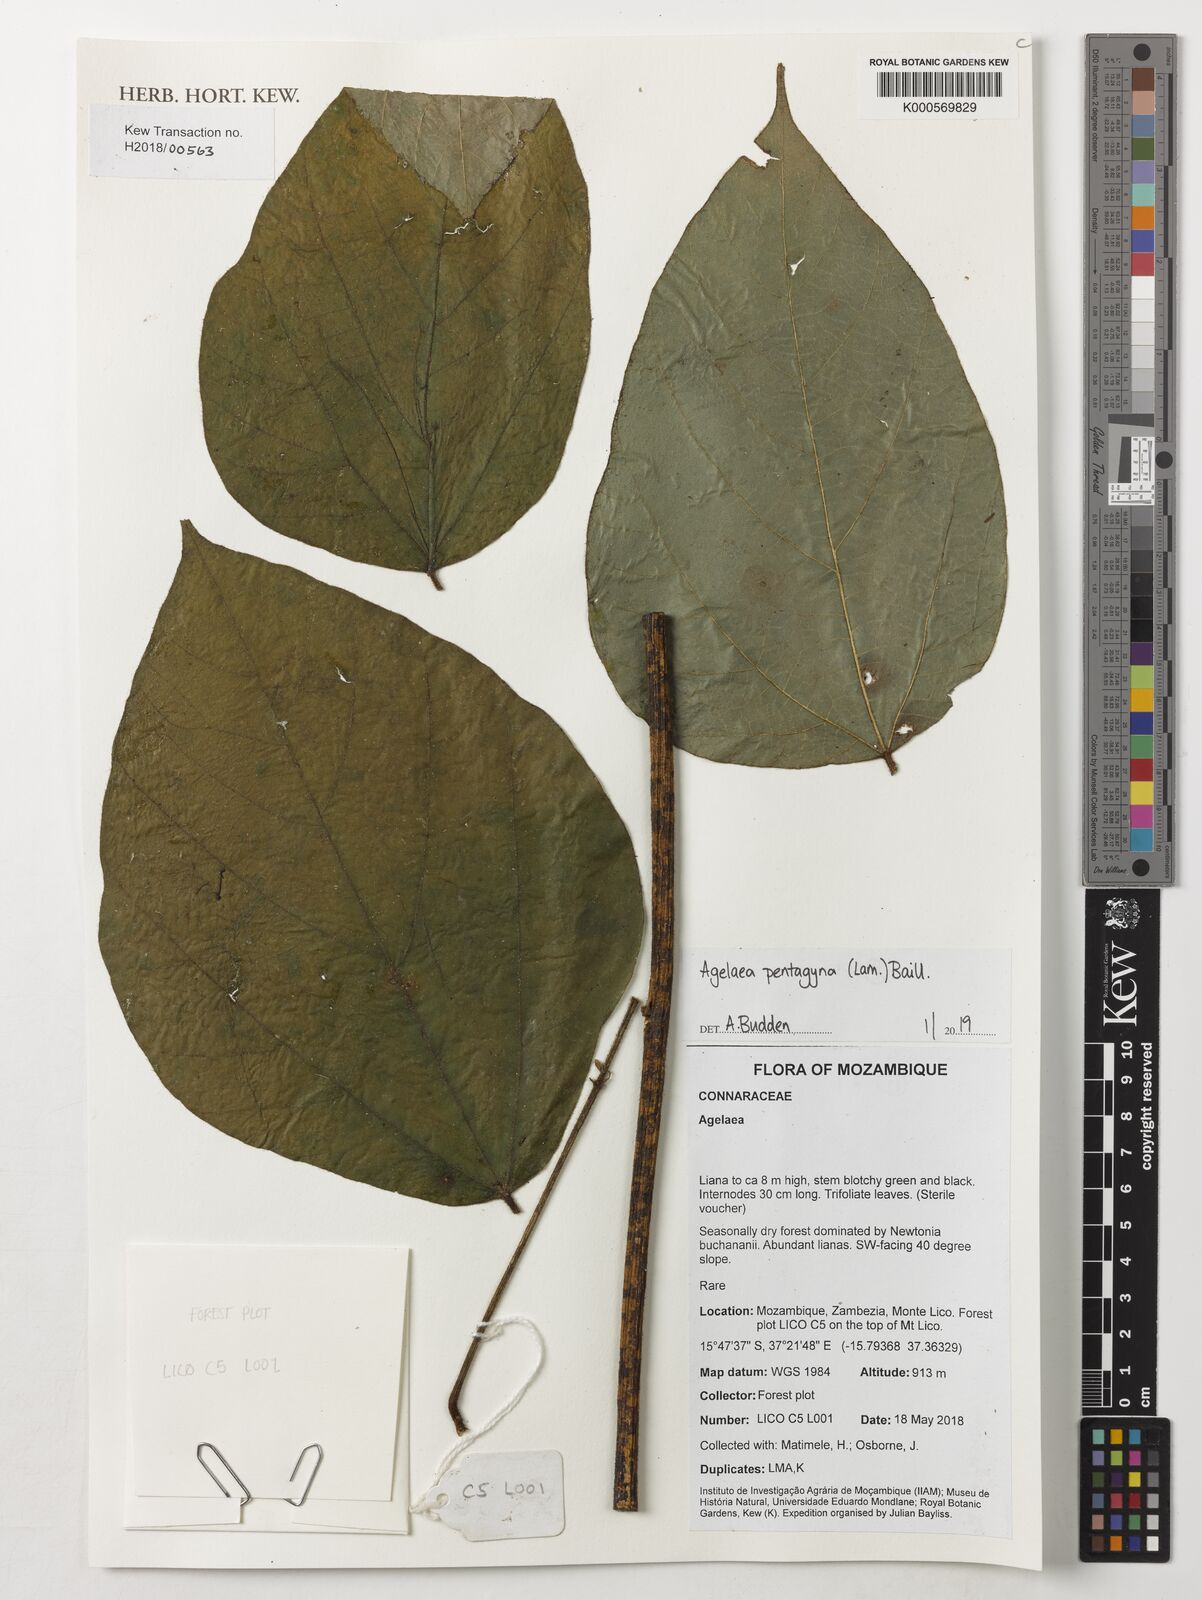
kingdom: Plantae
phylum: Tracheophyta
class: Magnoliopsida
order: Oxalidales
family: Connaraceae
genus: Agelaea
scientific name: Agelaea pentagyna
